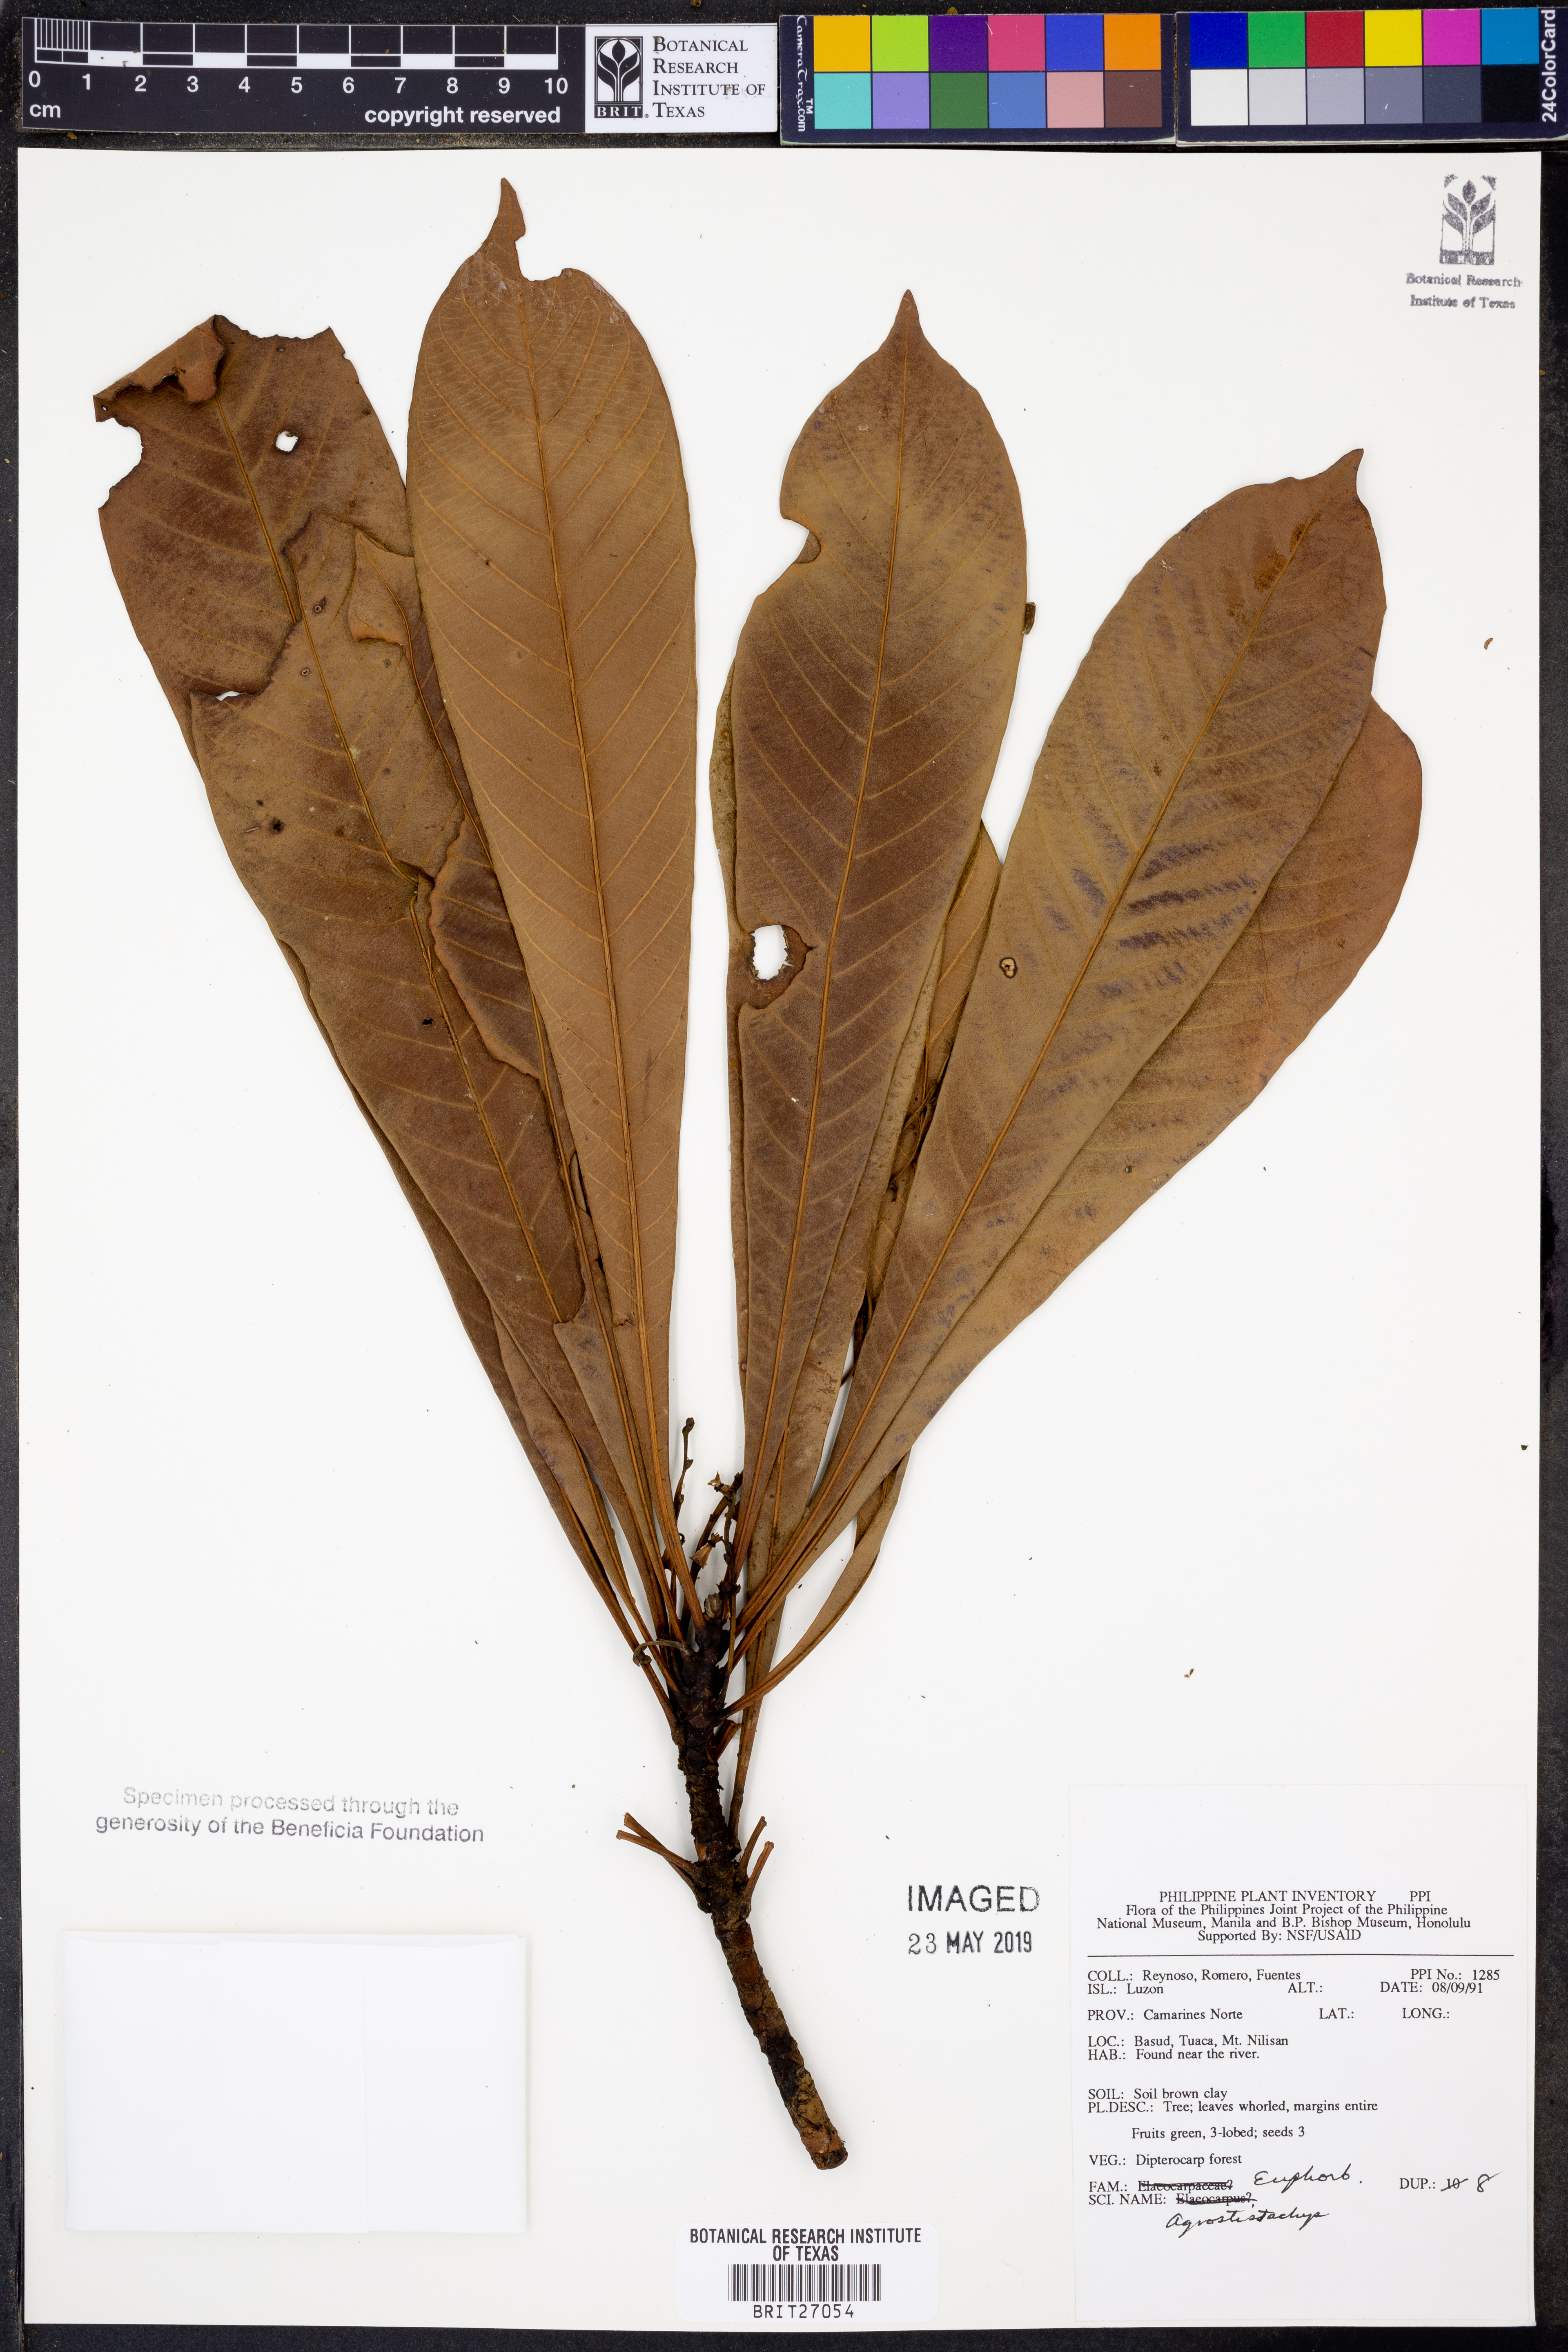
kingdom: Plantae
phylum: Tracheophyta
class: Magnoliopsida
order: Malpighiales
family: Euphorbiaceae
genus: Agrostistachys
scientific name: Agrostistachys
